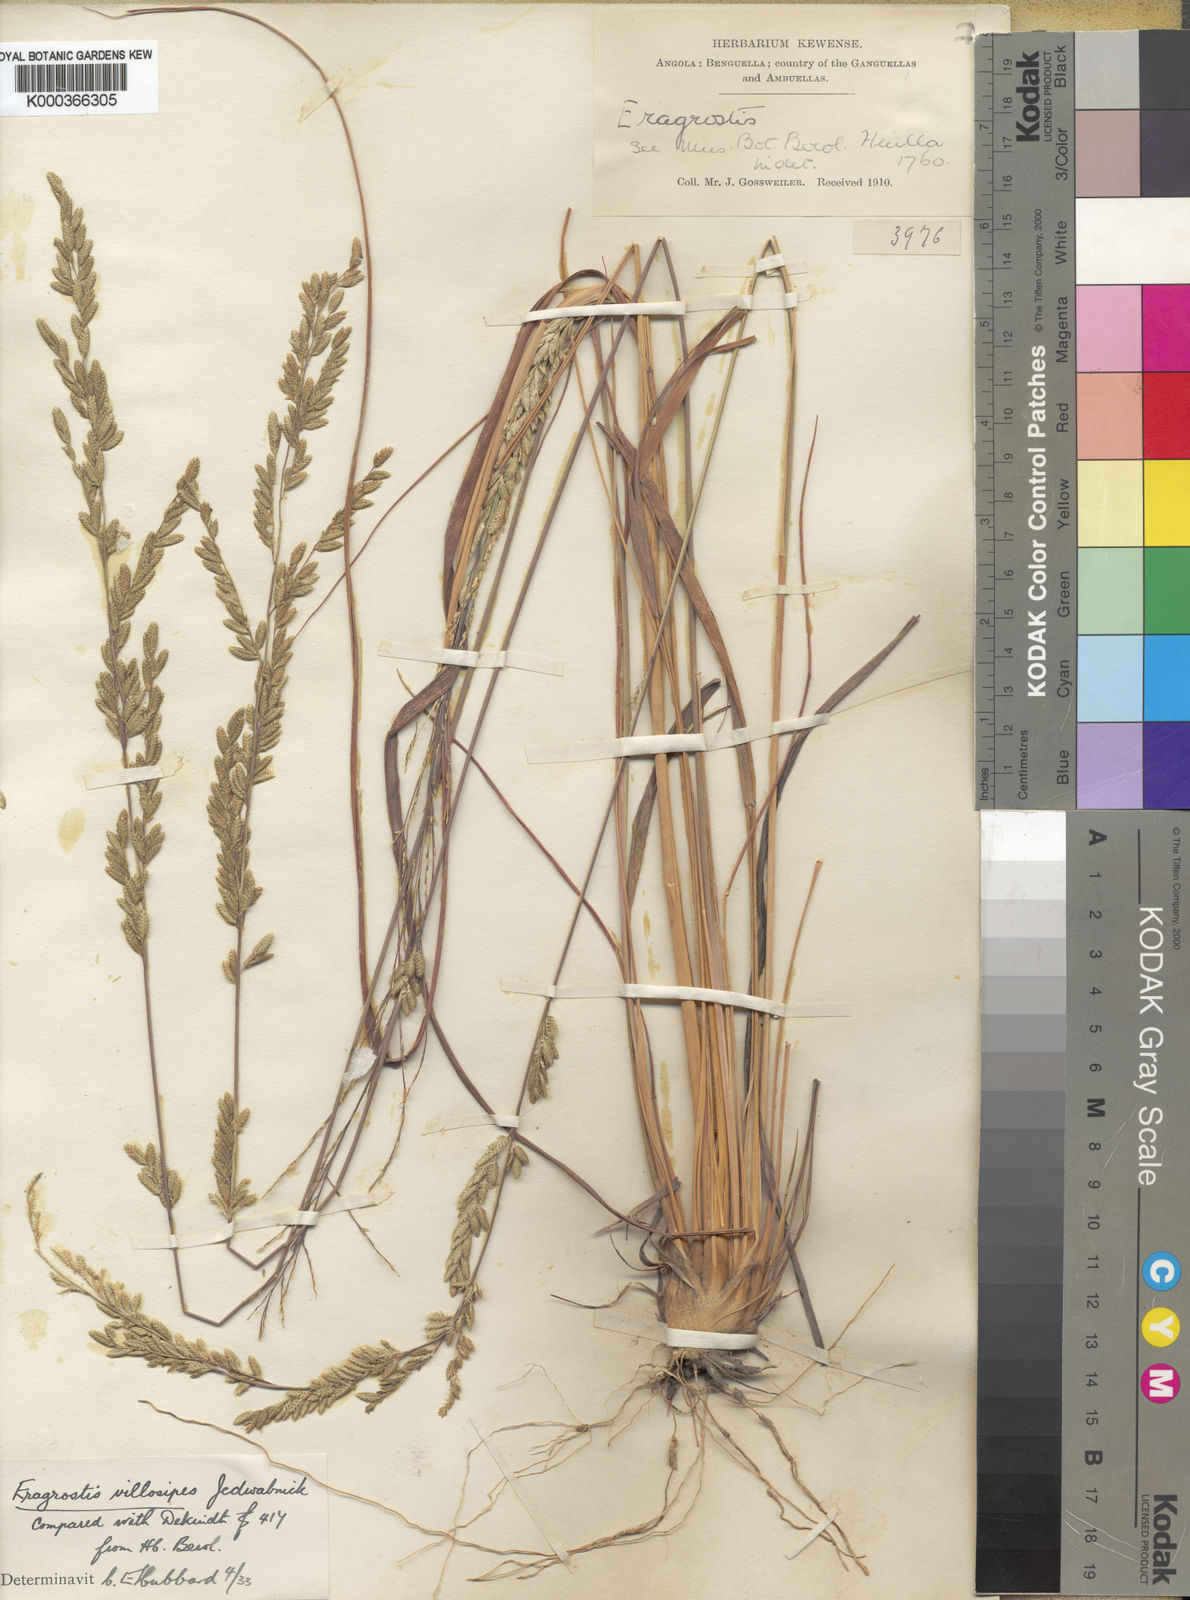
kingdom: Plantae
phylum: Tracheophyta
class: Liliopsida
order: Poales
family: Poaceae
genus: Eragrostis
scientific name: Eragrostis sclerantha
